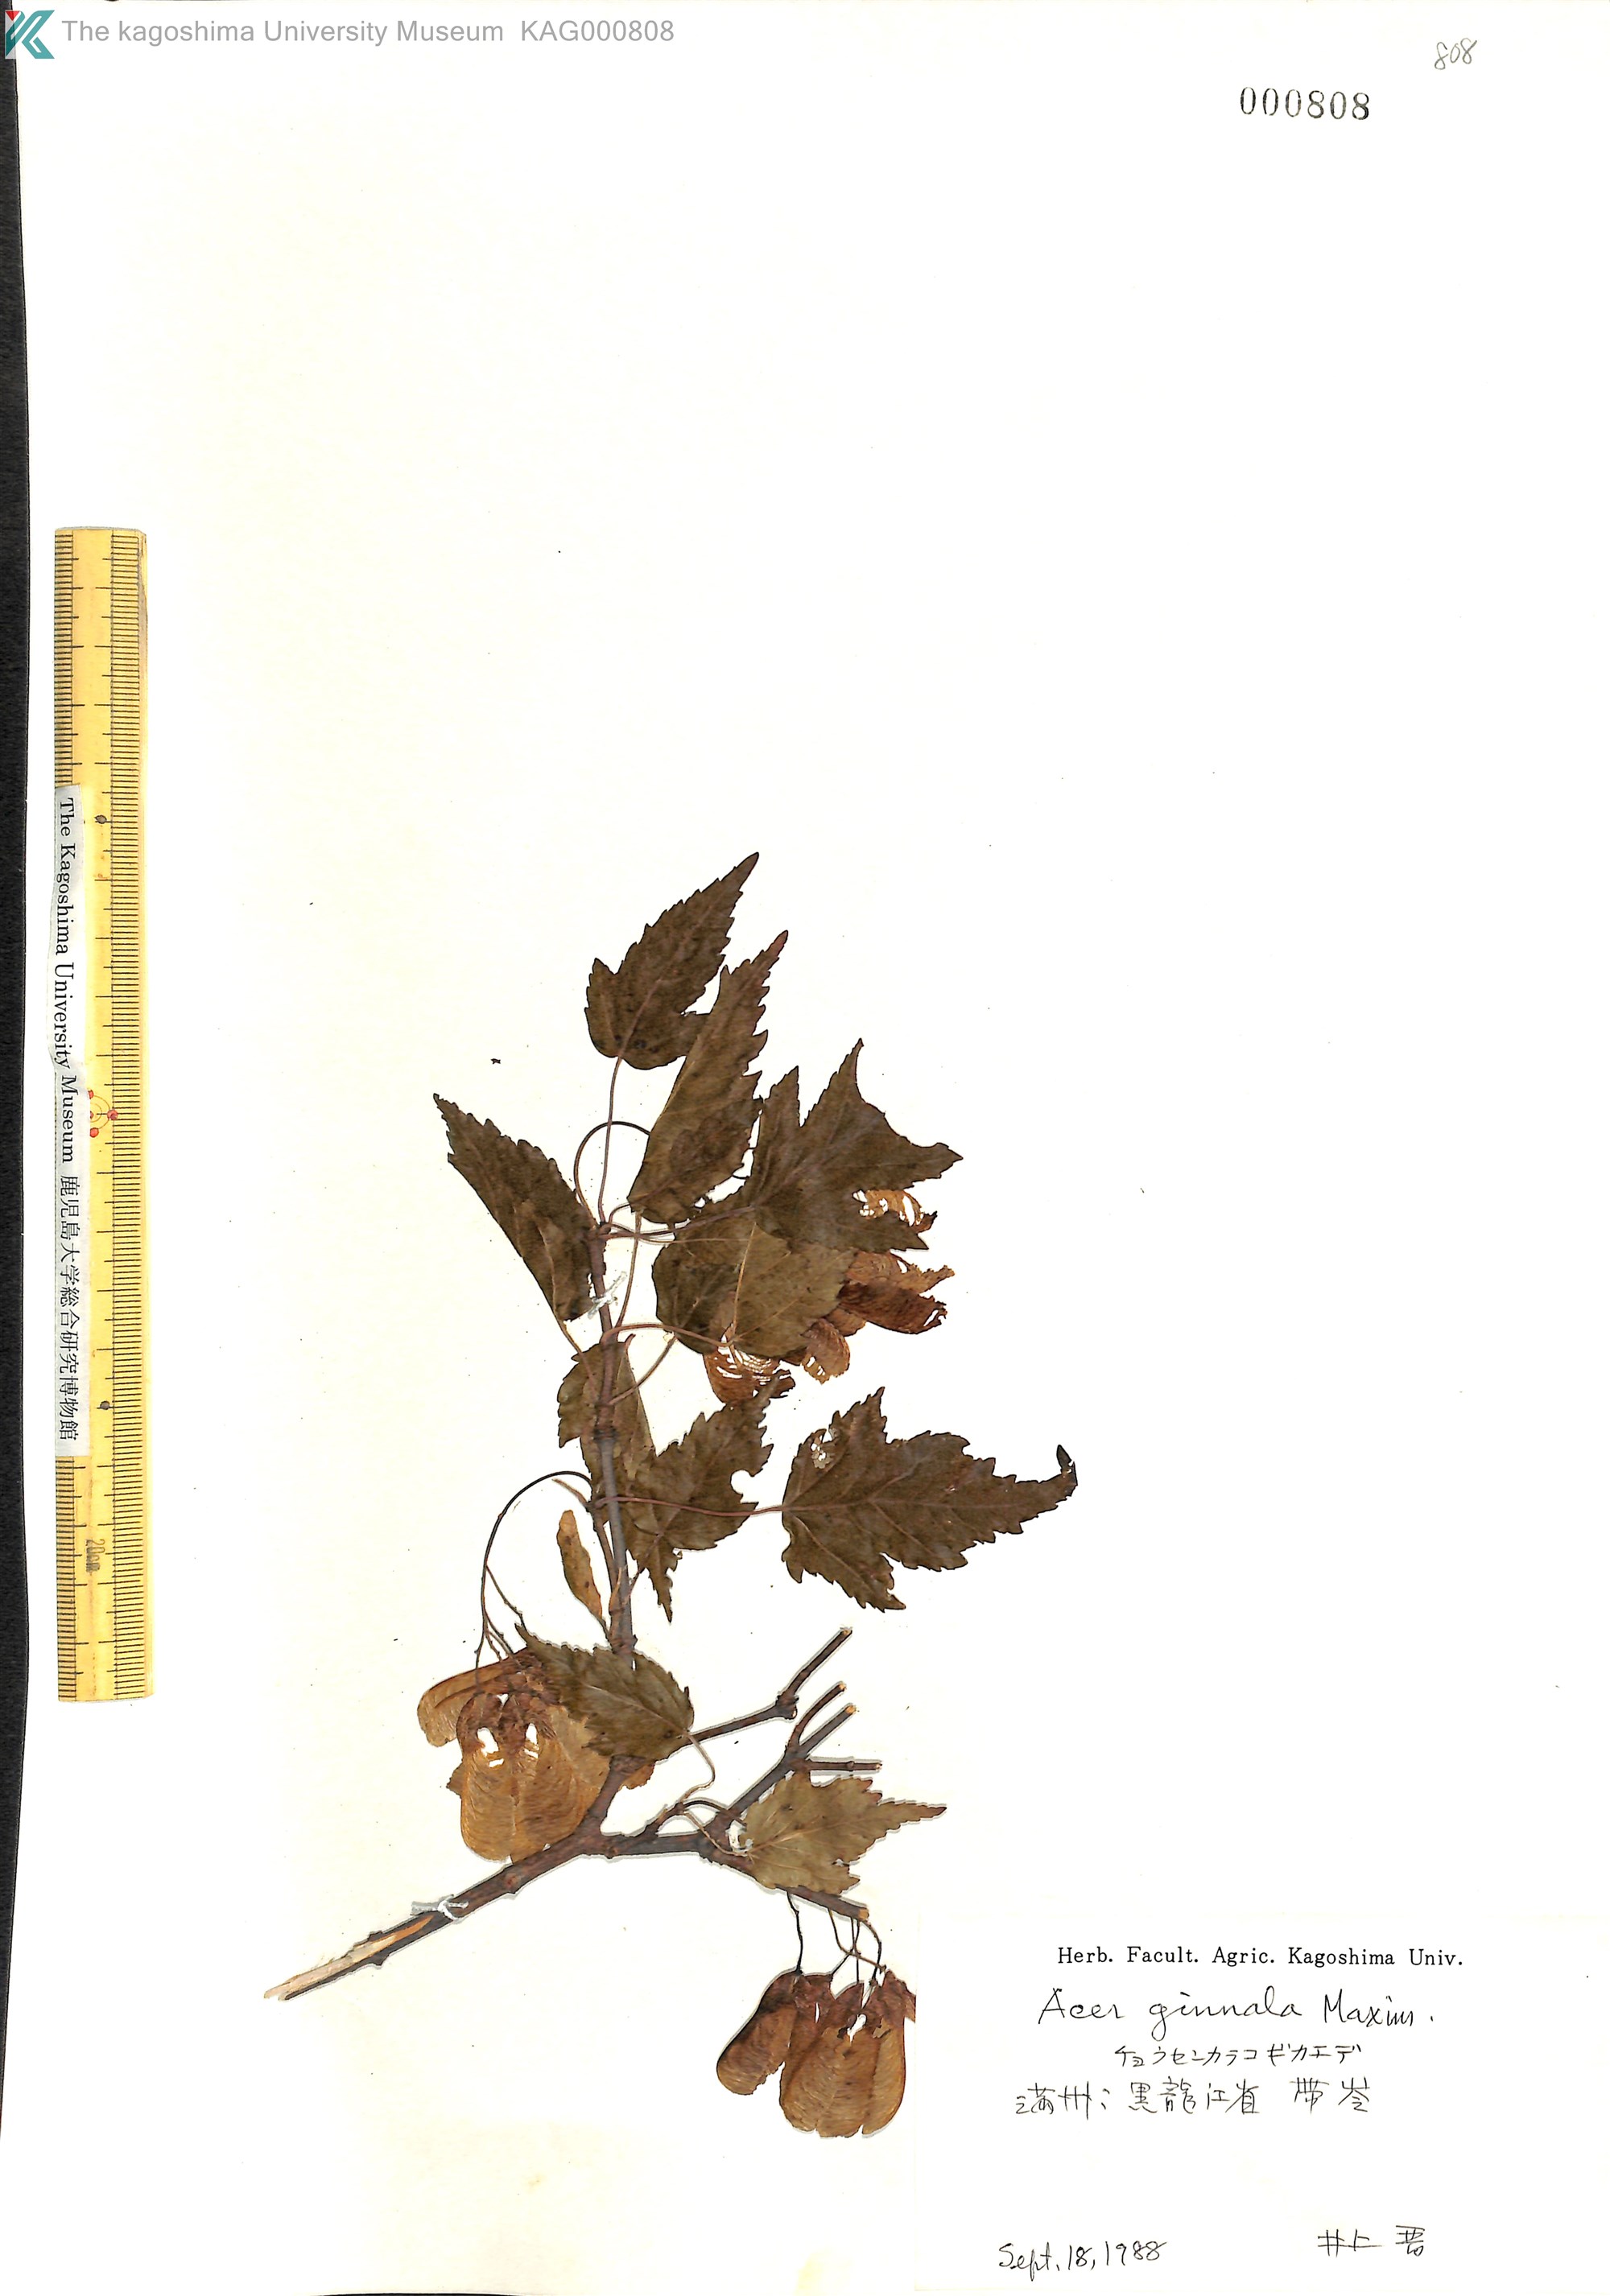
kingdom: Plantae
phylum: Tracheophyta
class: Magnoliopsida
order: Sapindales
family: Sapindaceae
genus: Acer
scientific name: Acer tataricum
